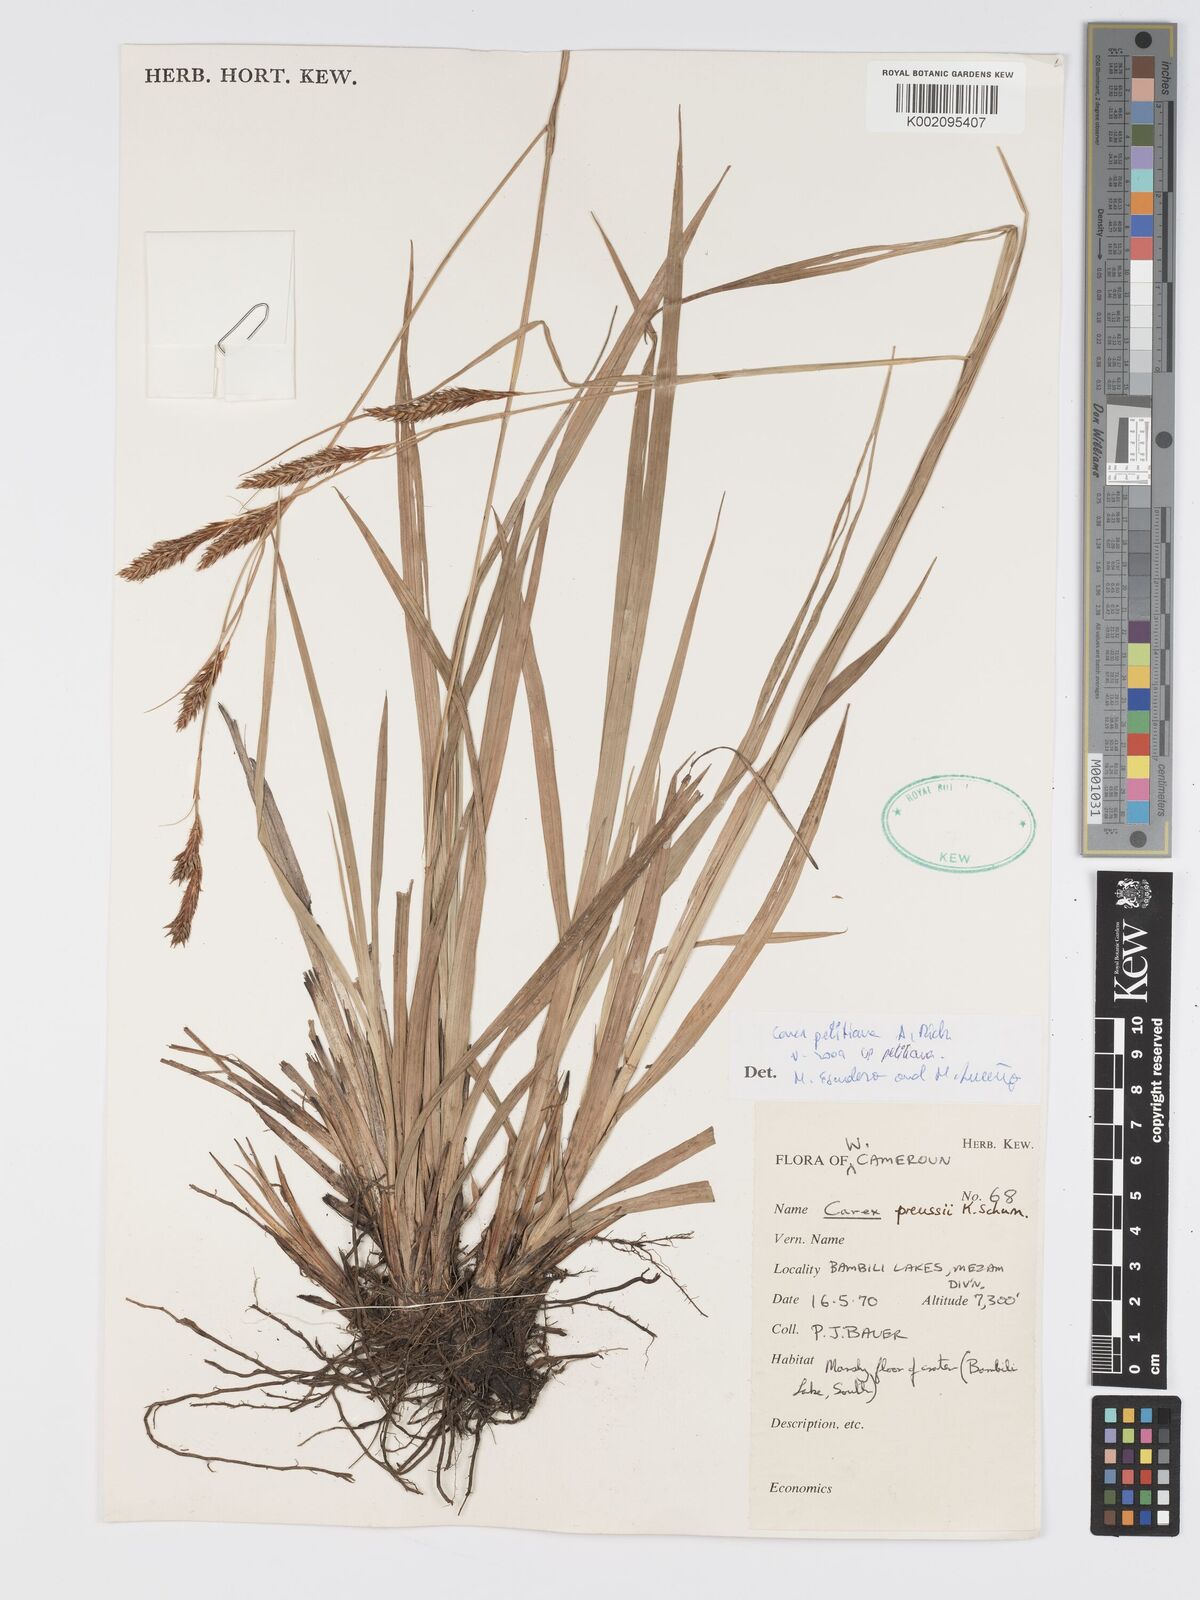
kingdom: Plantae
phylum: Tracheophyta
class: Liliopsida
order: Poales
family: Cyperaceae
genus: Carex
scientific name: Carex petitiana
